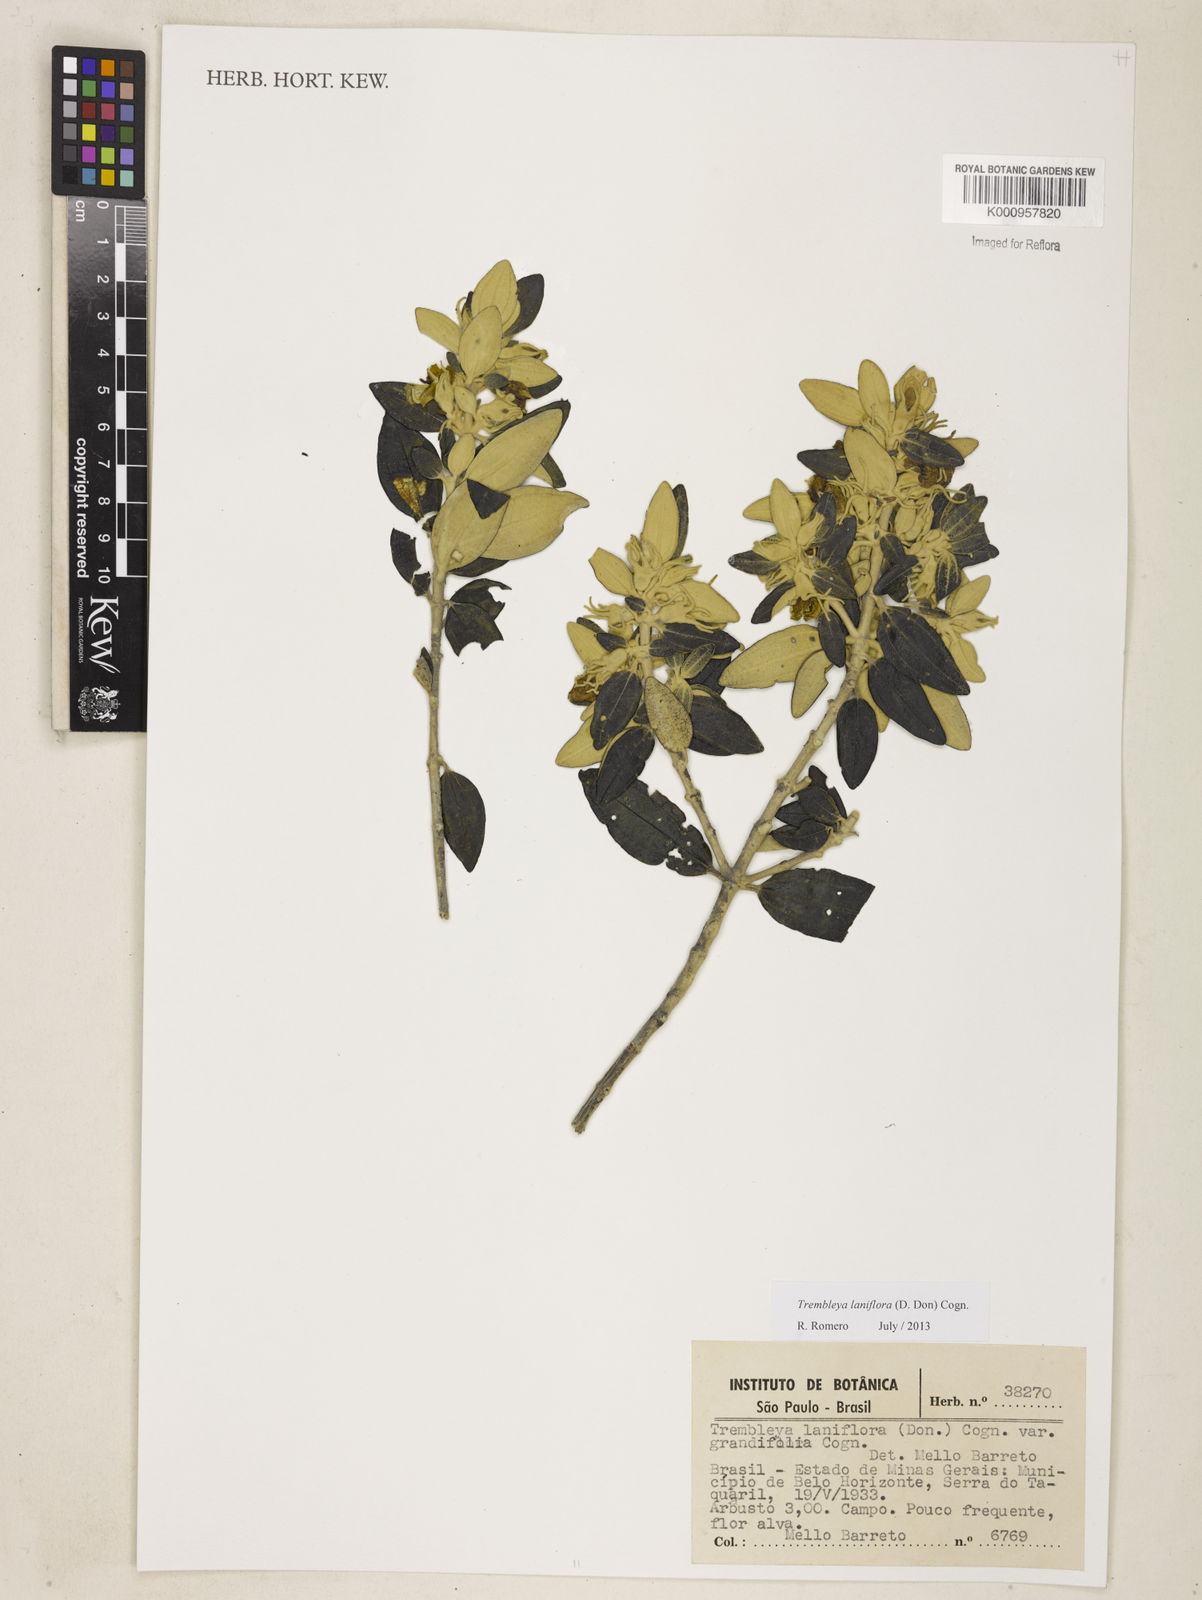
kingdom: Plantae
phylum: Tracheophyta
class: Magnoliopsida
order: Myrtales
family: Melastomataceae
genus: Microlicia
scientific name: Microlicia laniflora
